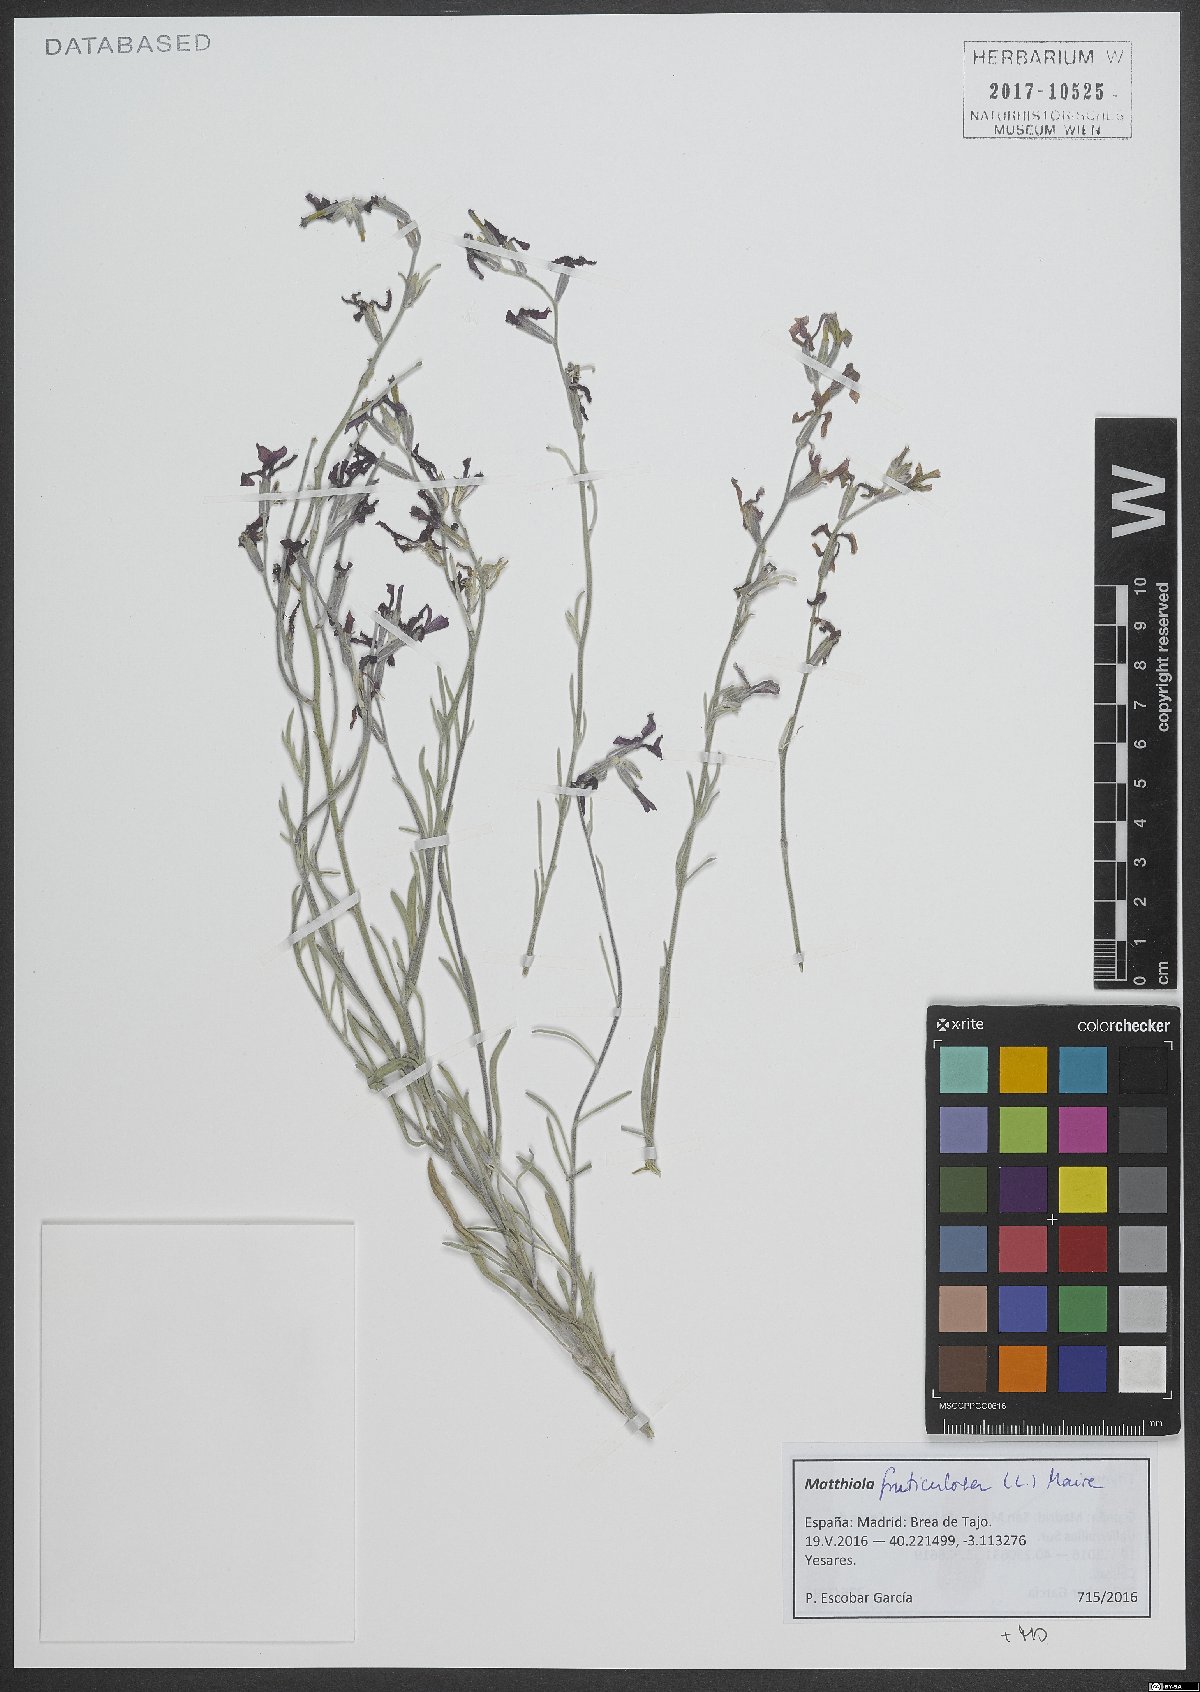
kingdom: Plantae
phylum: Tracheophyta
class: Magnoliopsida
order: Brassicales
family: Brassicaceae
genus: Matthiola
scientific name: Matthiola fruticulosa
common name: Sad stock
